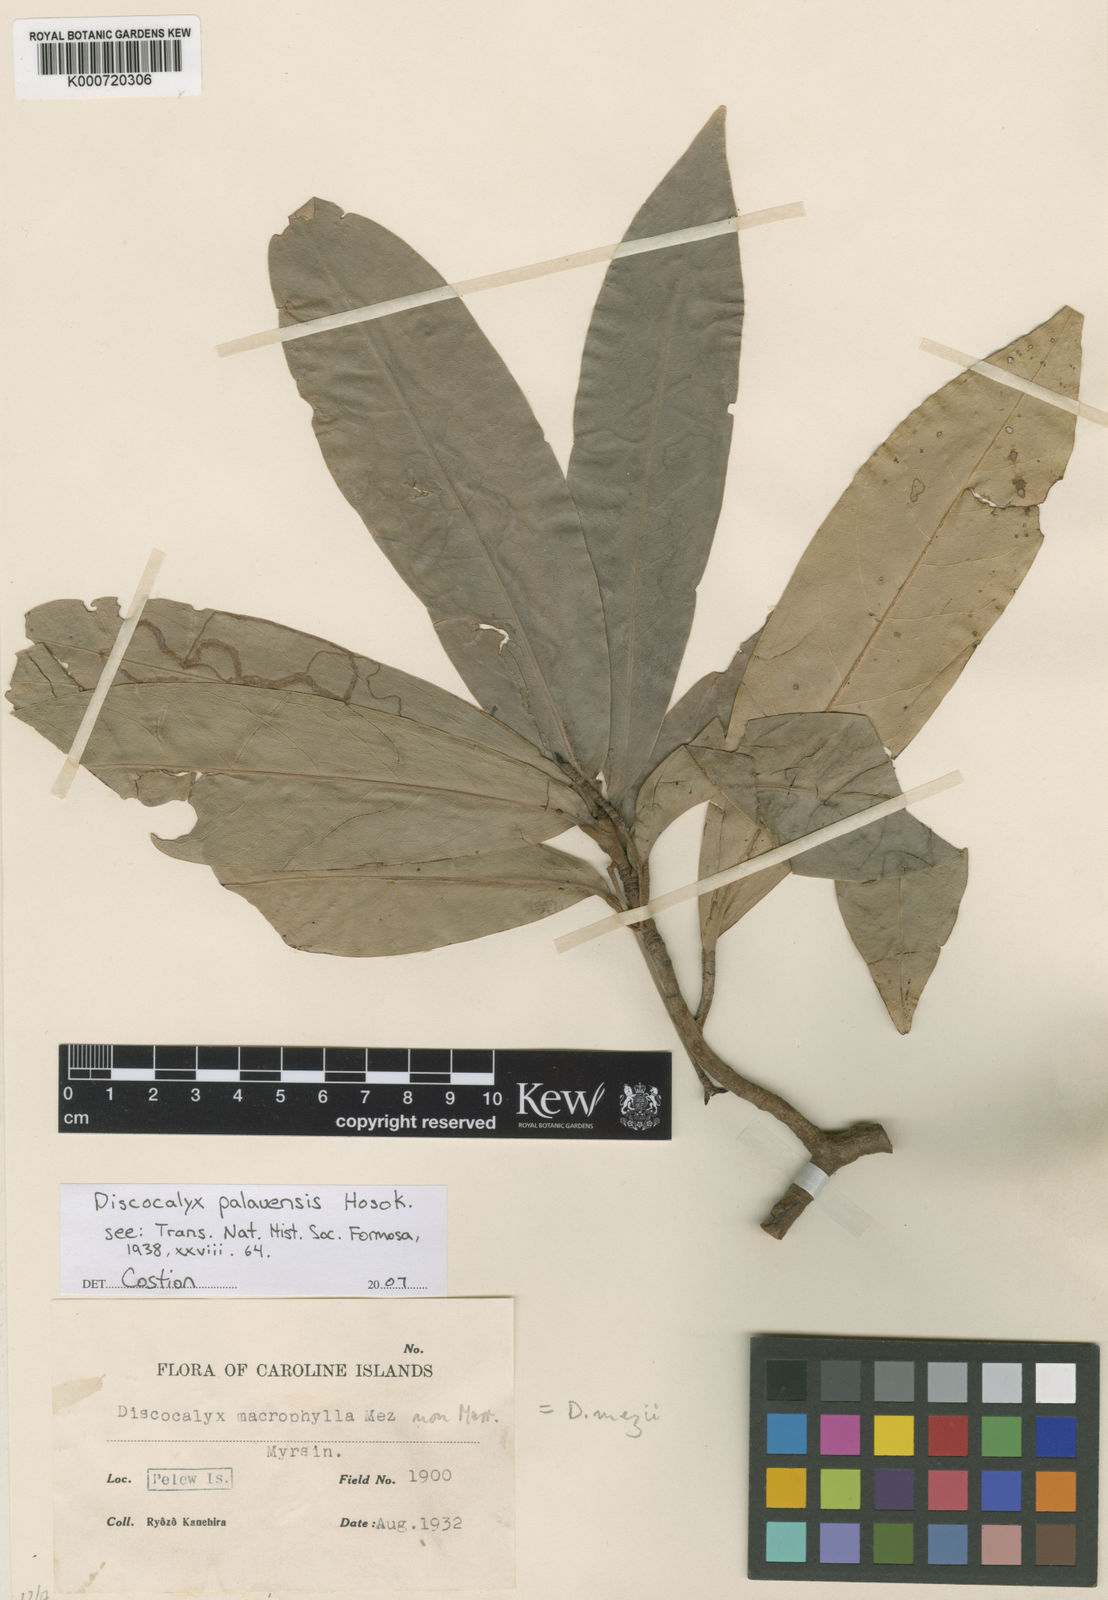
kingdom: Plantae
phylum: Tracheophyta
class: Magnoliopsida
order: Ericales
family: Primulaceae
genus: Discocalyx
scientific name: Discocalyx palauensis
